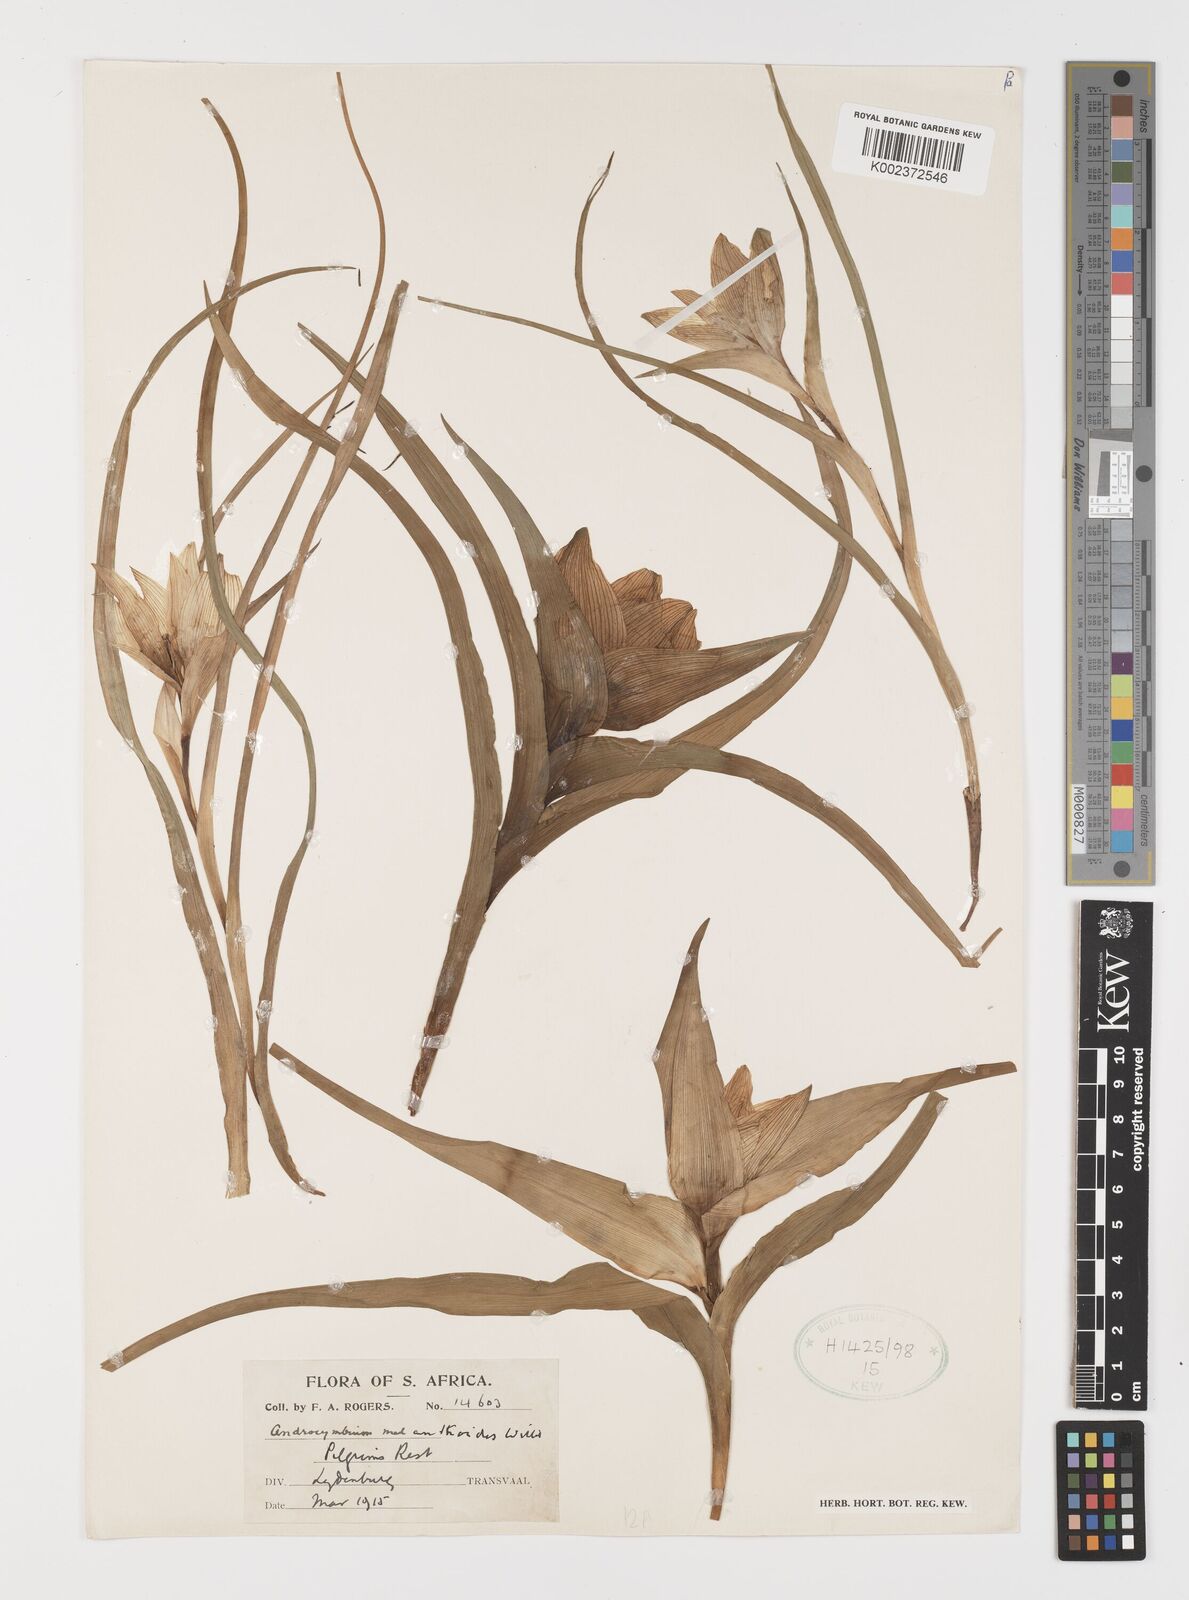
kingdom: Plantae
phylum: Tracheophyta
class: Liliopsida
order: Liliales
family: Colchicaceae
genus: Colchicum
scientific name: Colchicum melanthioides
